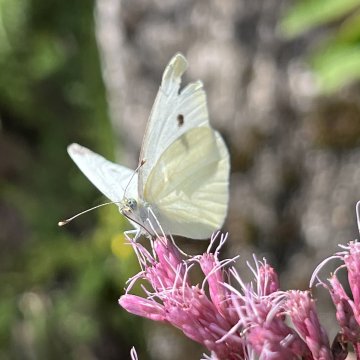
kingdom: Animalia
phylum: Arthropoda
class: Insecta
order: Lepidoptera
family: Pieridae
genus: Pieris
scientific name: Pieris rapae
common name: Cabbage White
